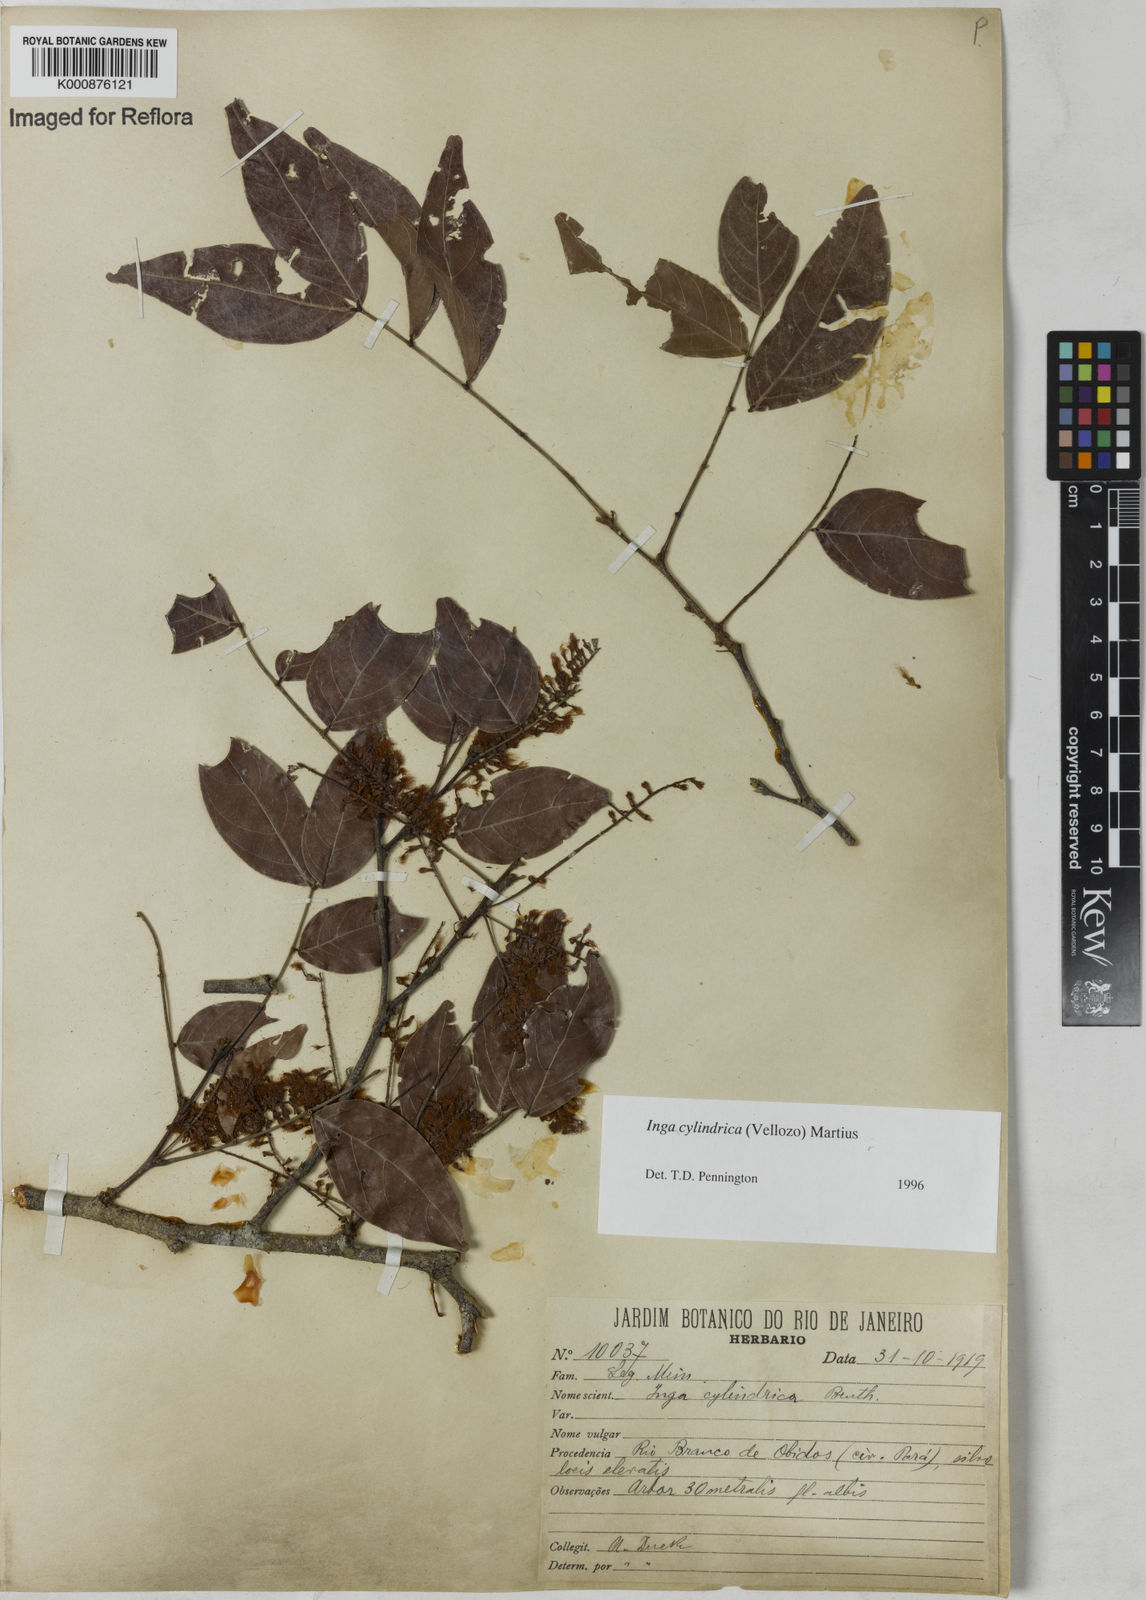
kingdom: Plantae
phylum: Tracheophyta
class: Magnoliopsida
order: Fabales
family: Fabaceae
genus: Inga
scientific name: Inga cylindrica
